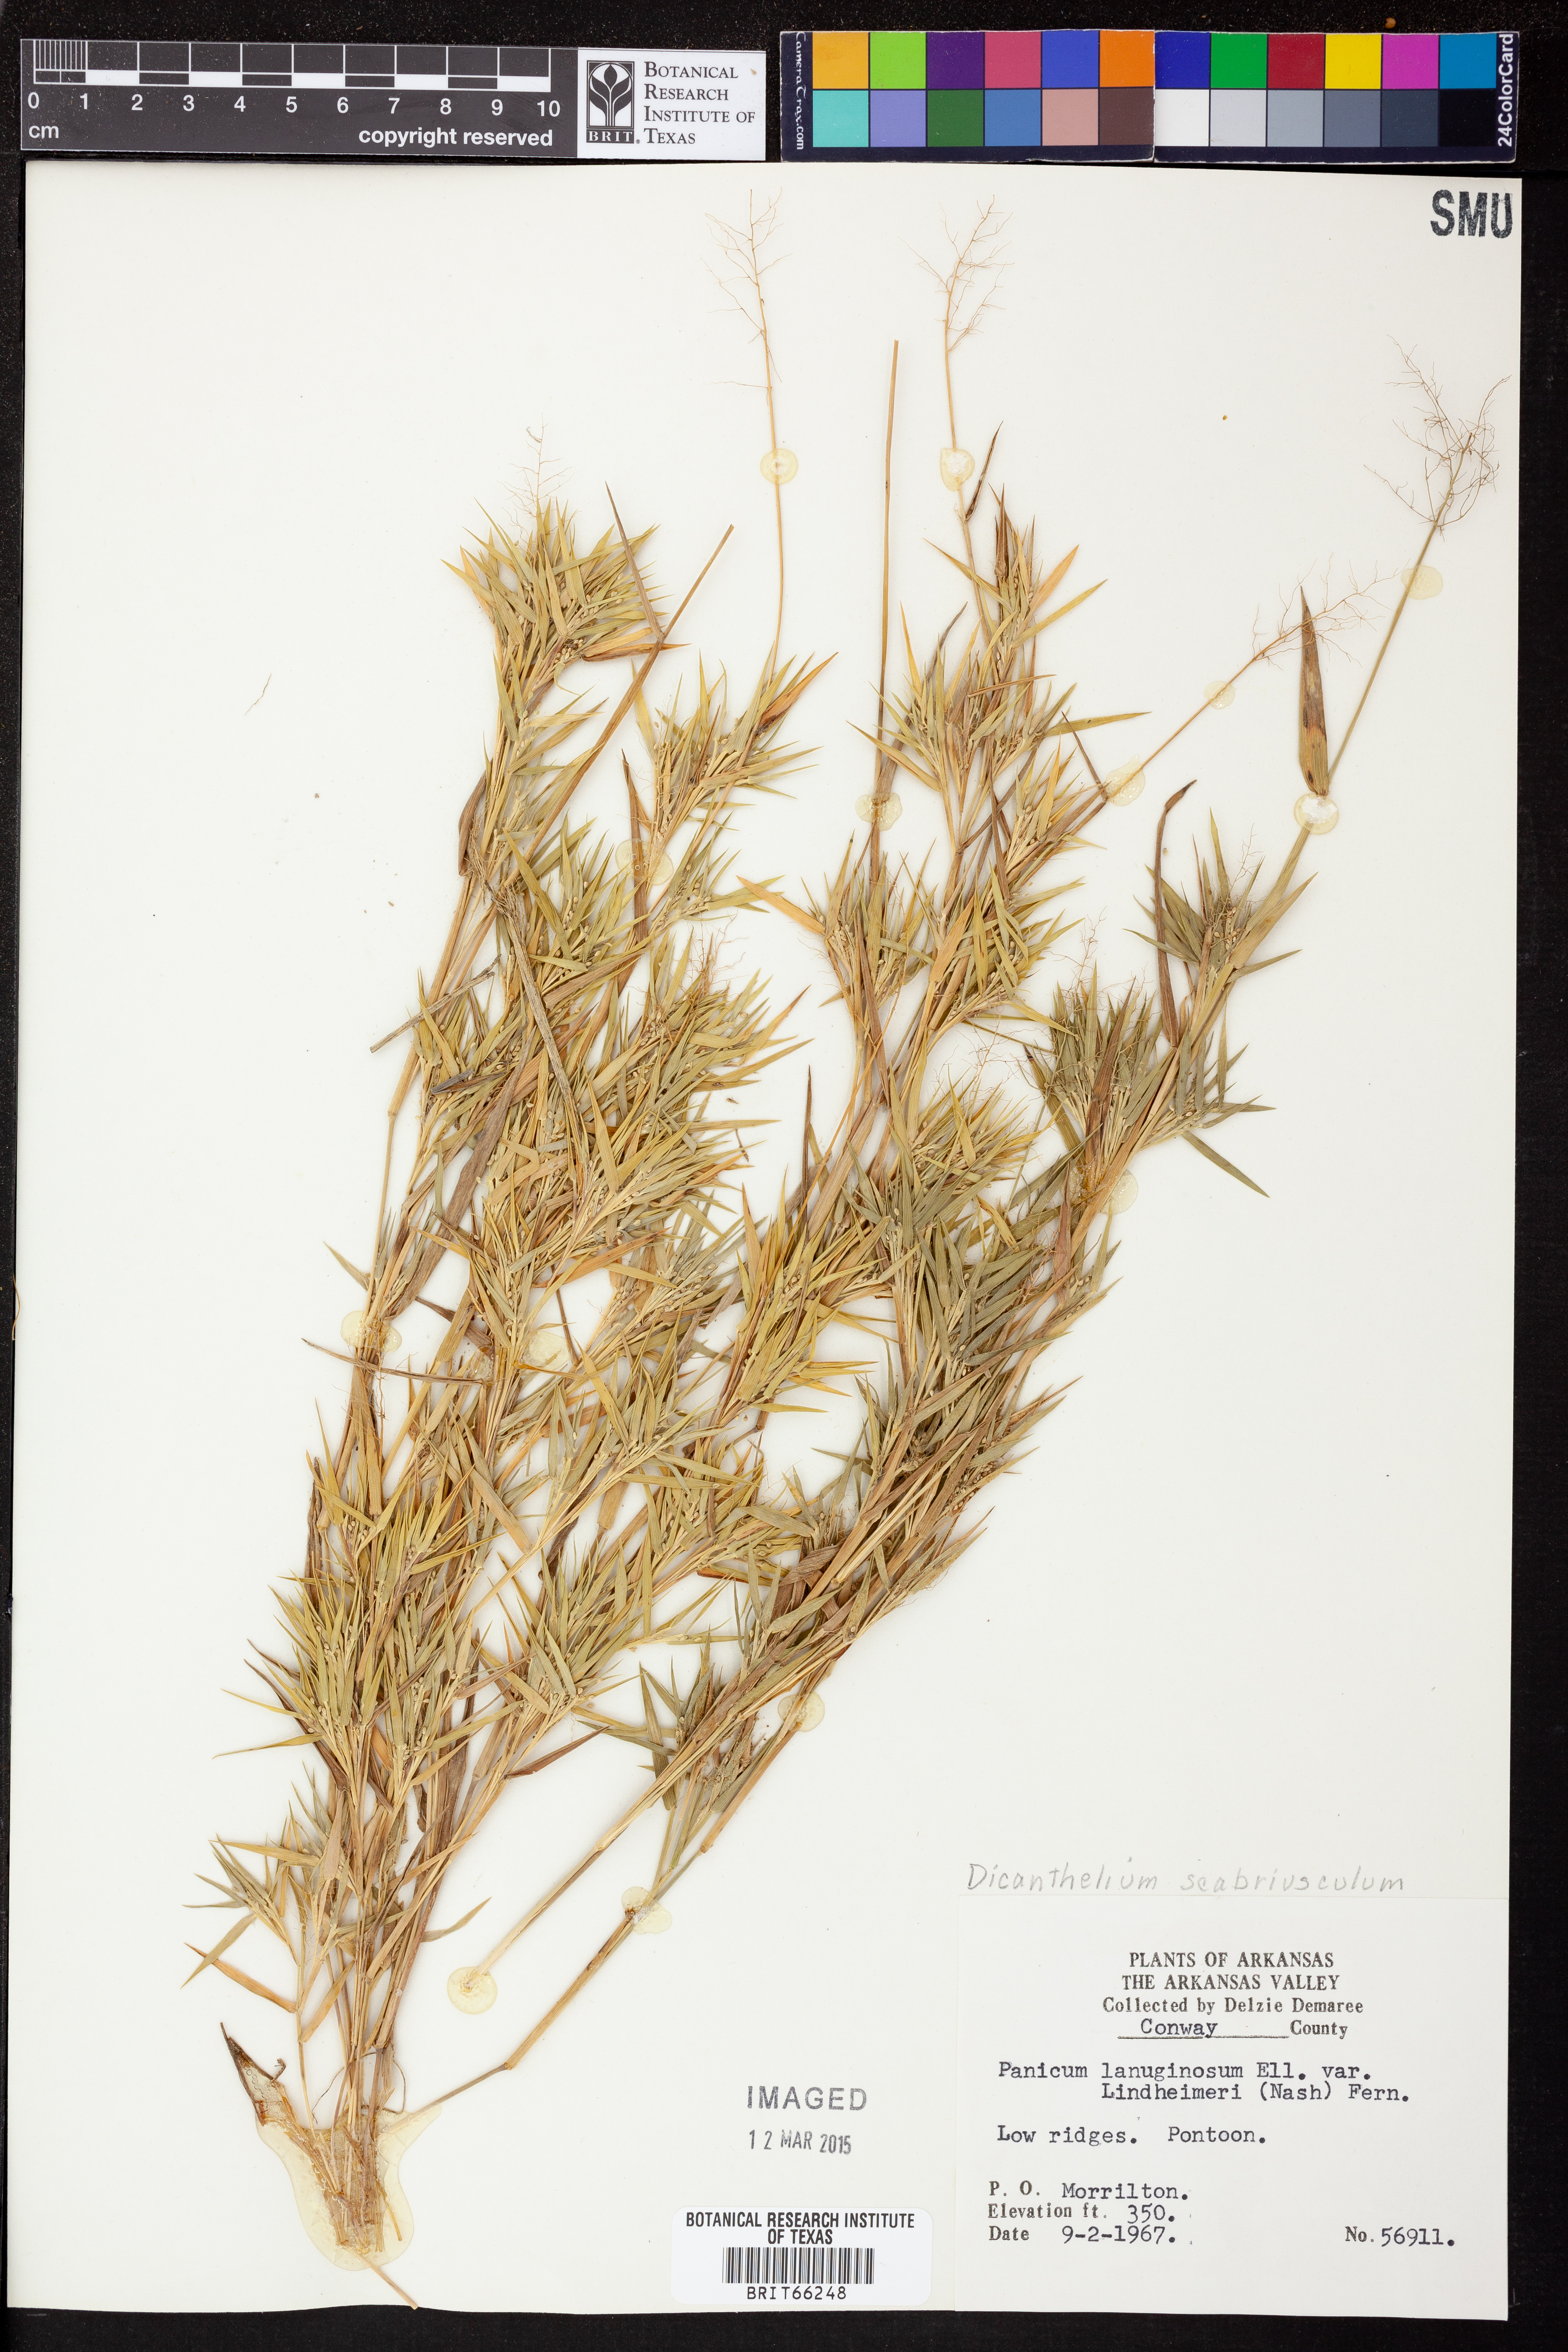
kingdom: Plantae
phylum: Tracheophyta
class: Liliopsida
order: Poales
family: Poaceae
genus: Dichanthelium
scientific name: Dichanthelium longiligulatum
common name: Long-ligule panicgrass
